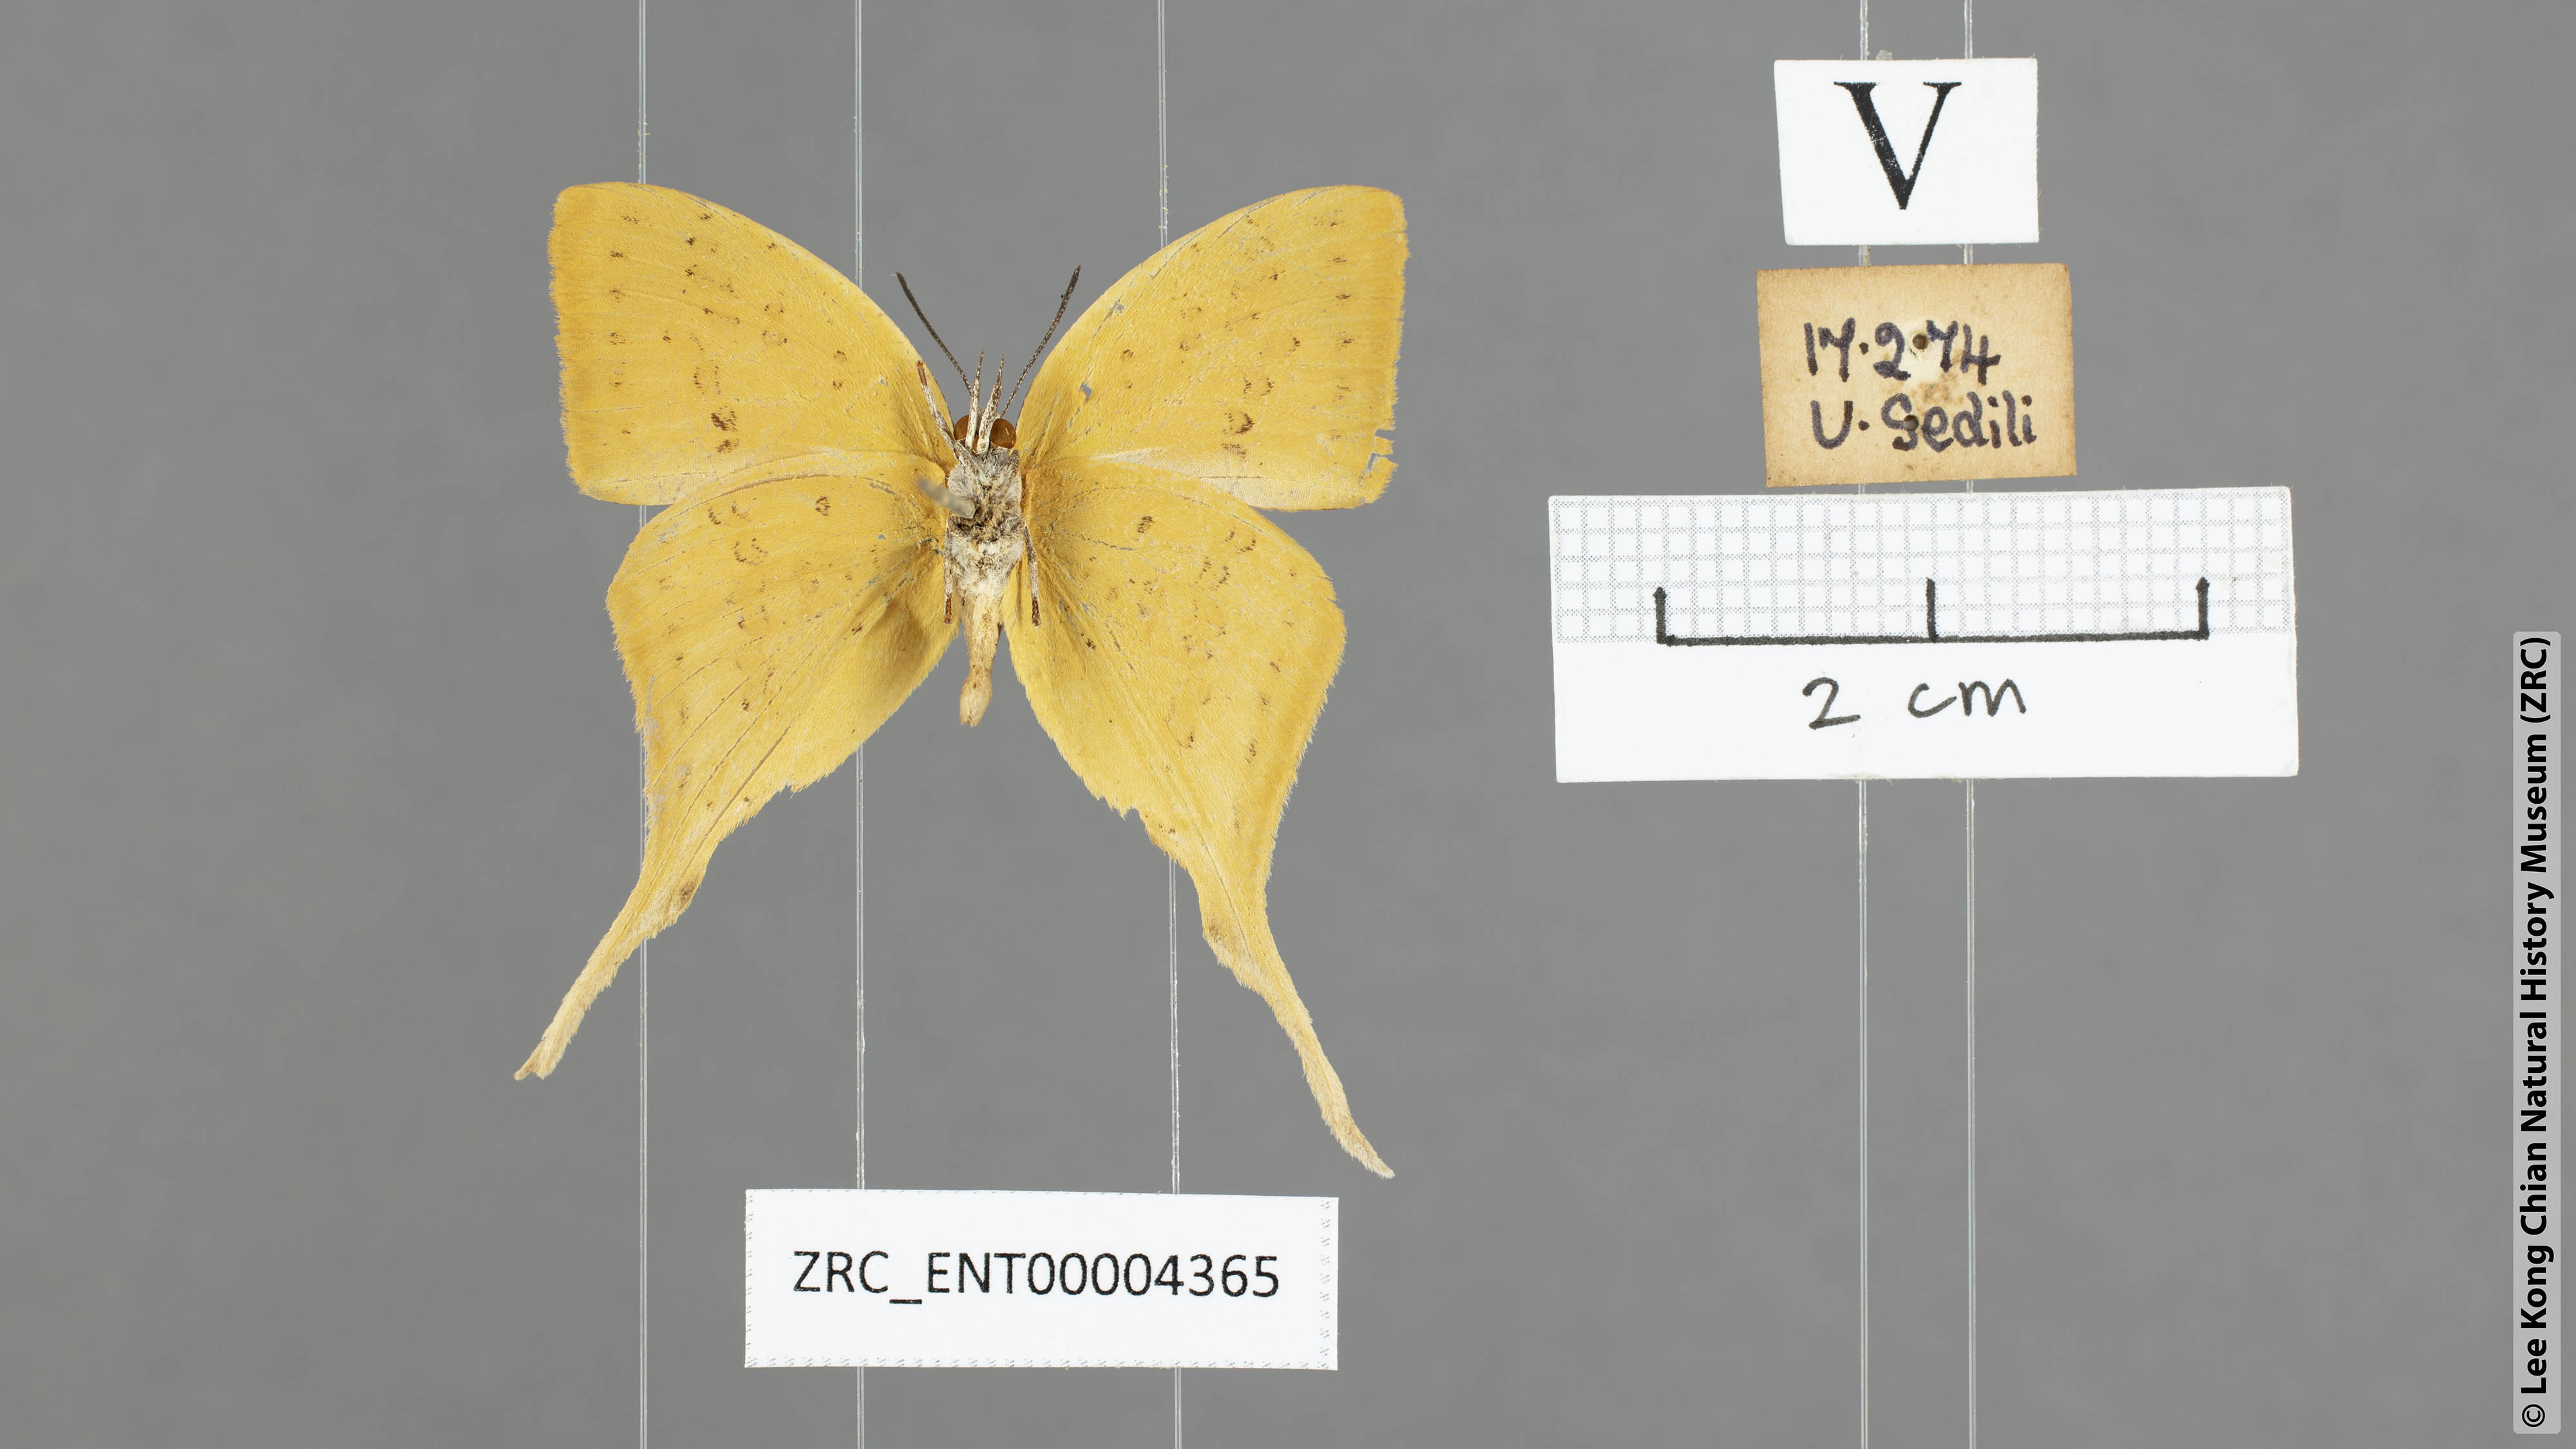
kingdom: Animalia
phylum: Arthropoda
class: Insecta
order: Lepidoptera
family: Lycaenidae
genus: Loxura
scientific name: Loxura cassiopeia
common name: Malayan yamfly
